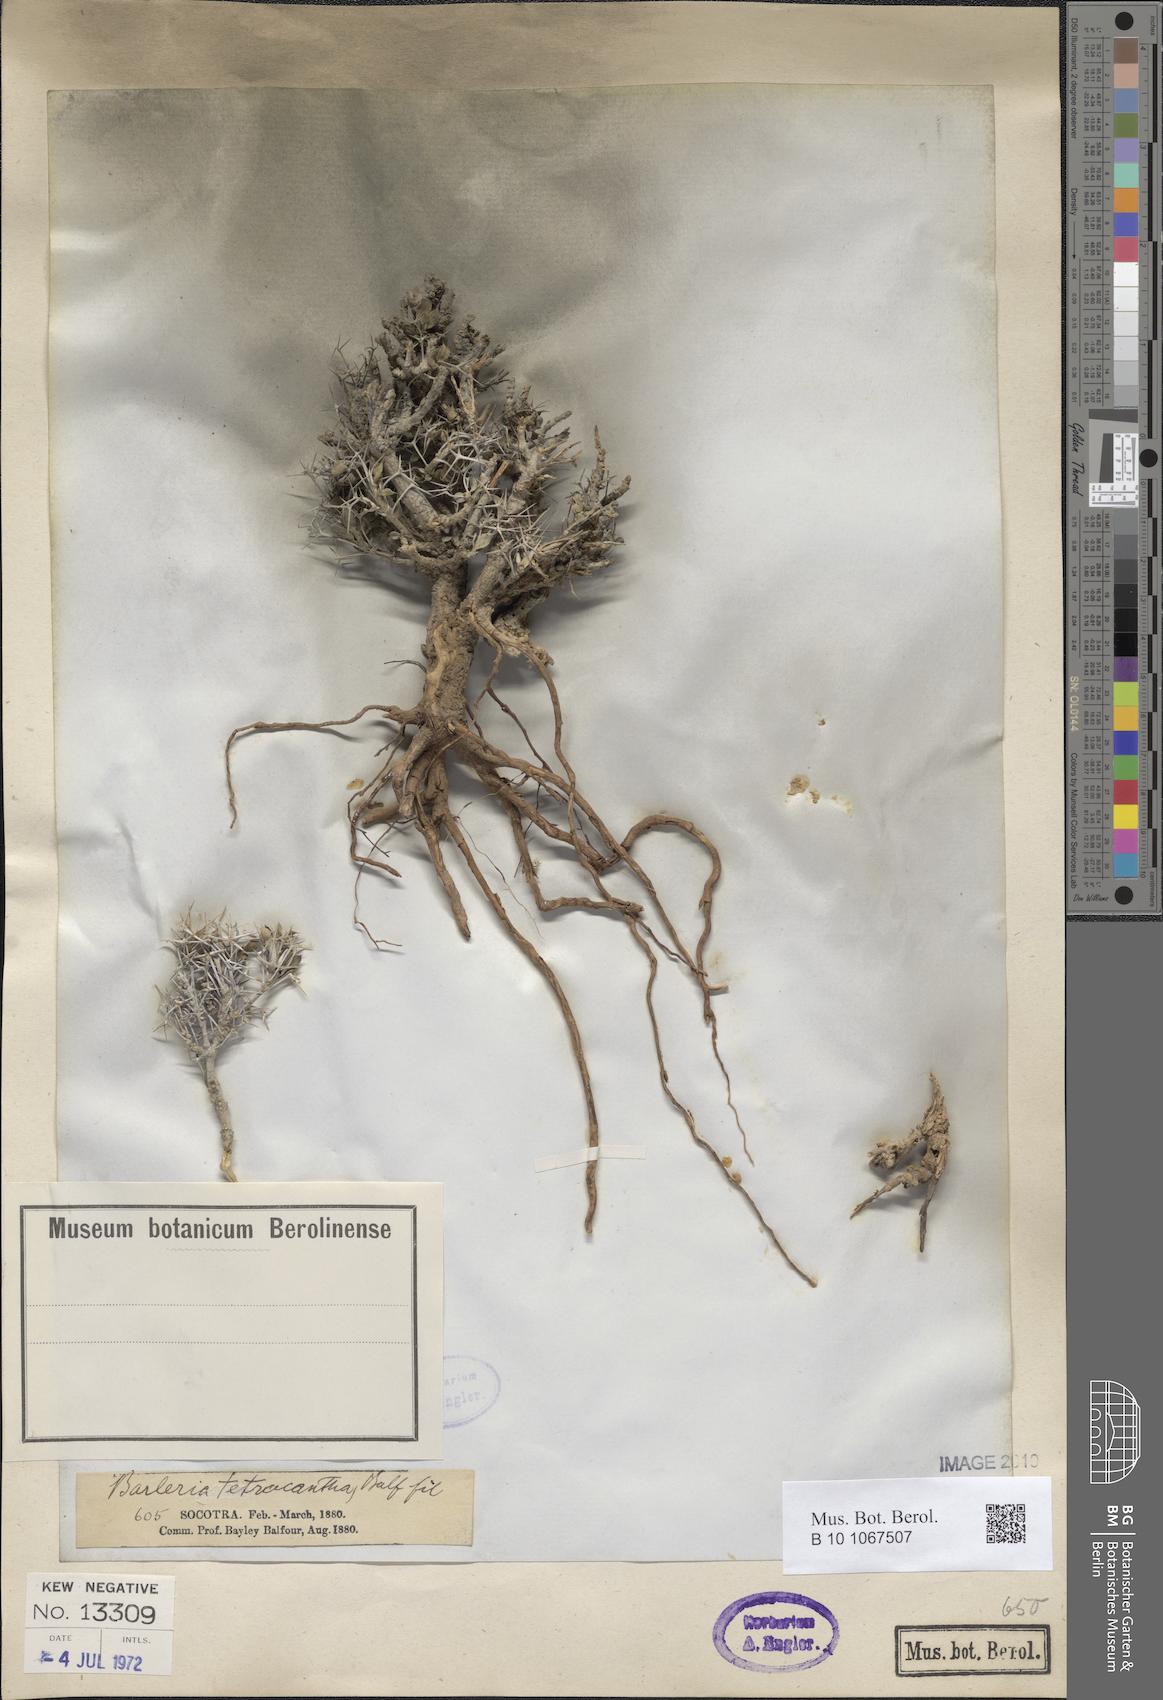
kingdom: Plantae
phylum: Tracheophyta
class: Magnoliopsida
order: Lamiales
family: Acanthaceae
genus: Barleria
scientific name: Barleria tetracantha
